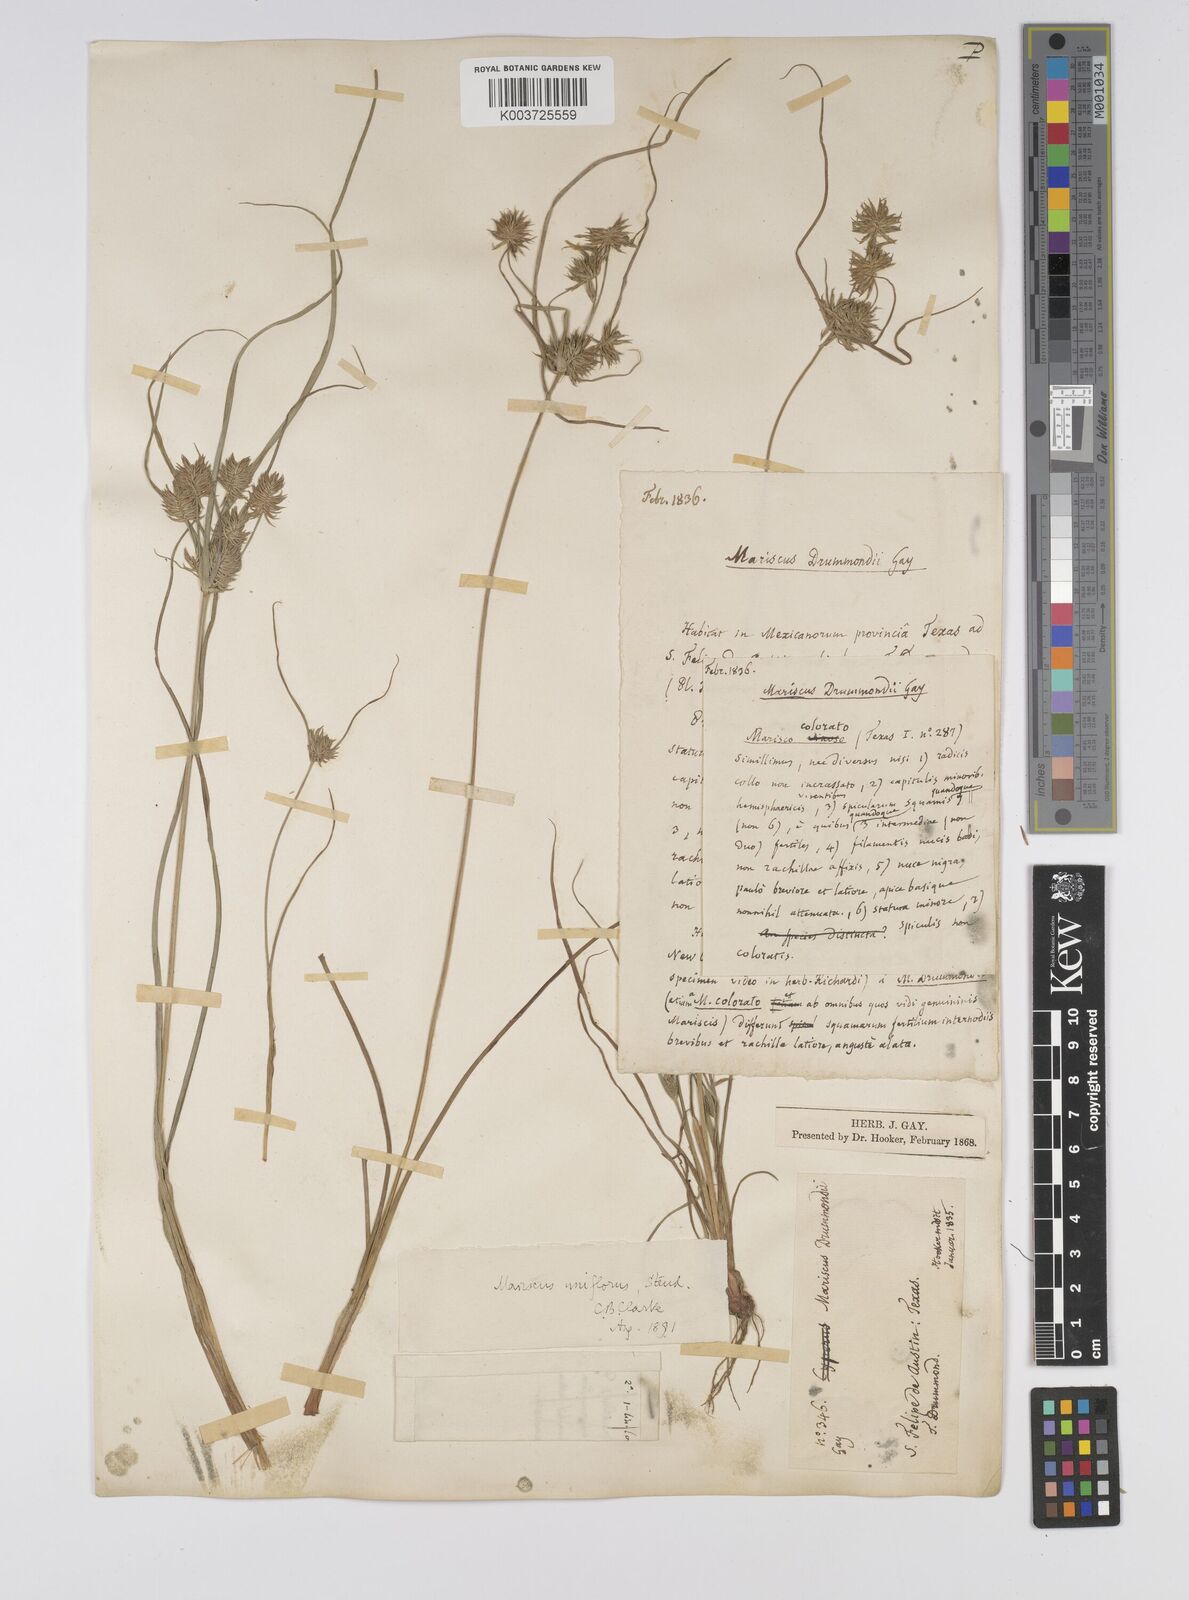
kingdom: Plantae
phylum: Tracheophyta
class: Liliopsida
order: Poales
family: Cyperaceae
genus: Cyperus
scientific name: Cyperus retroflexus
